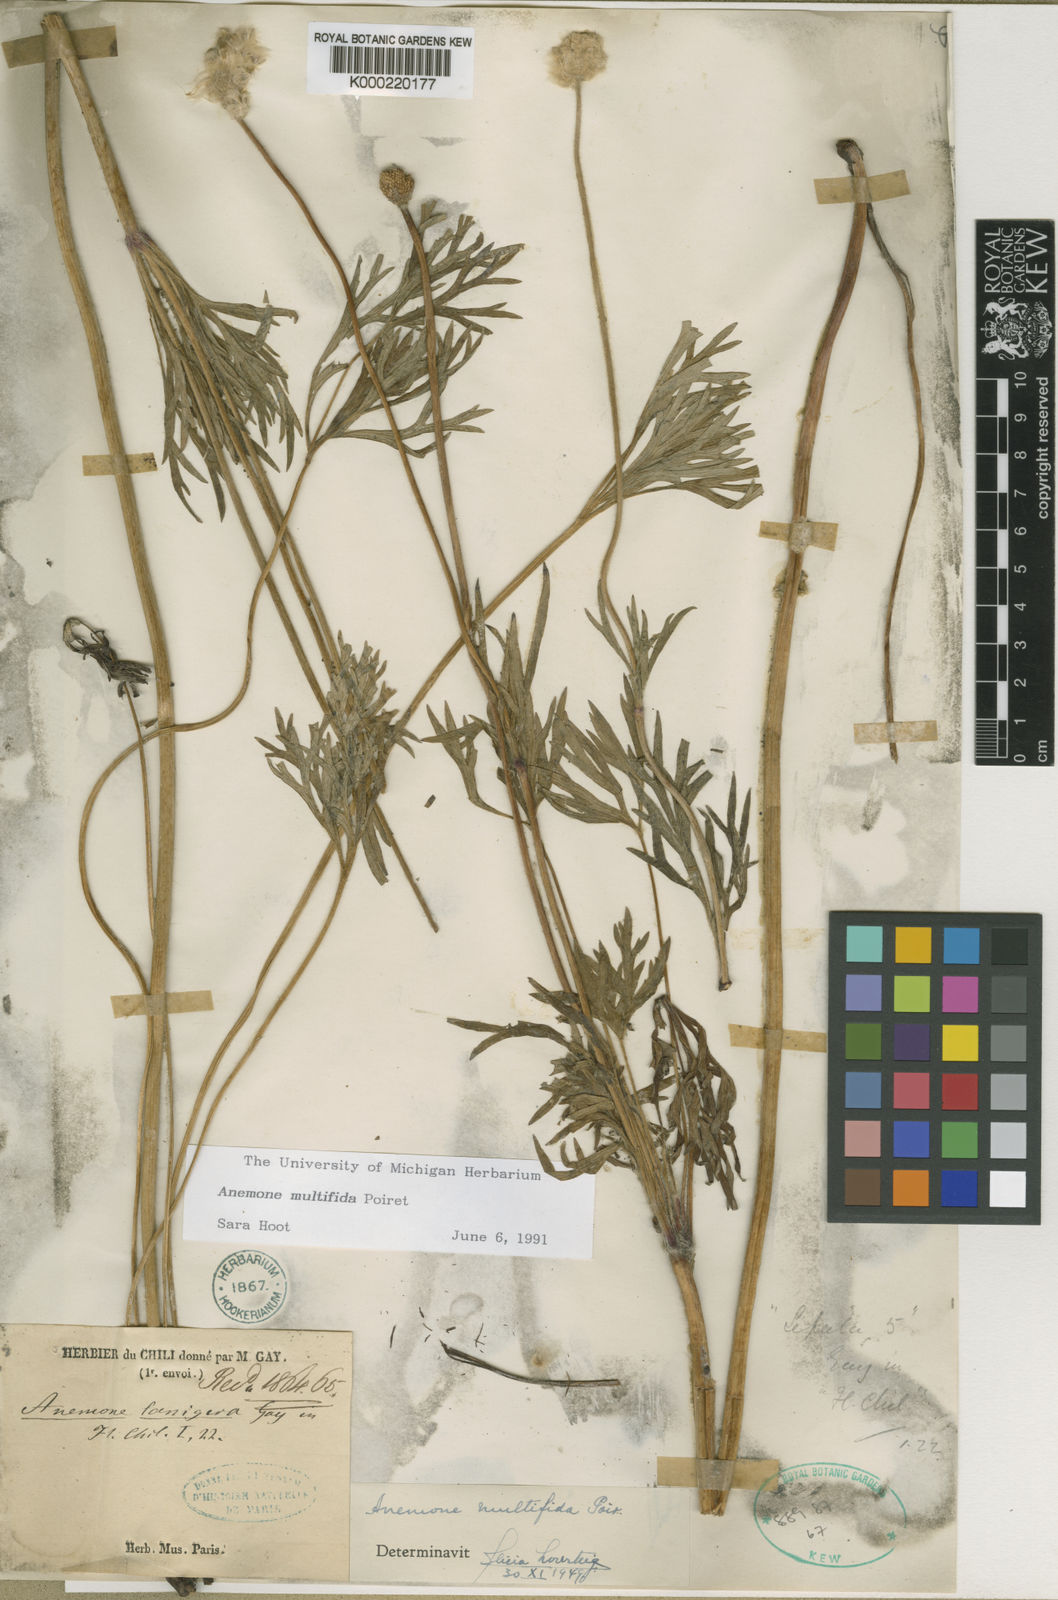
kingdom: Plantae
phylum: Tracheophyta
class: Magnoliopsida
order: Ranunculales
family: Ranunculaceae
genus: Anemone
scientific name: Anemone multifida
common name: Bird's-foot anemone
